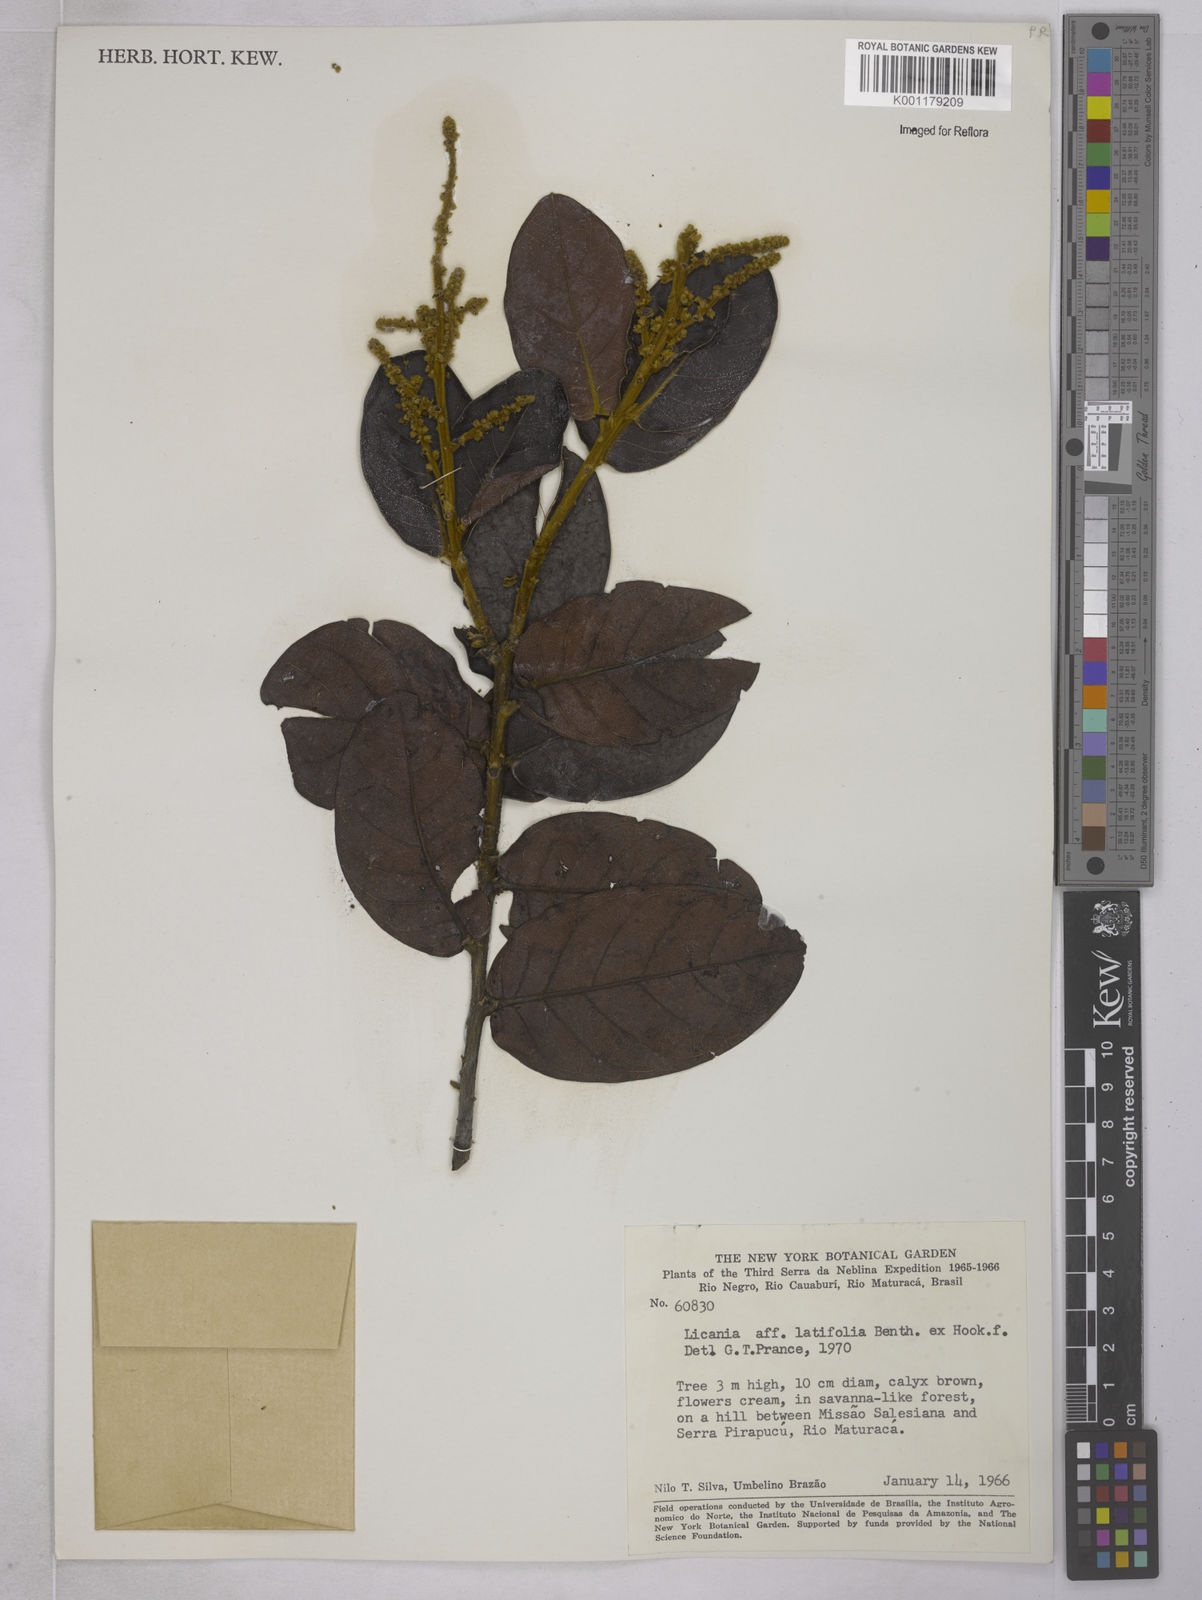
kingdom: Plantae
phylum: Tracheophyta
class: Magnoliopsida
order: Malpighiales
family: Chrysobalanaceae
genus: Hymenopus
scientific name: Hymenopus latifolius
